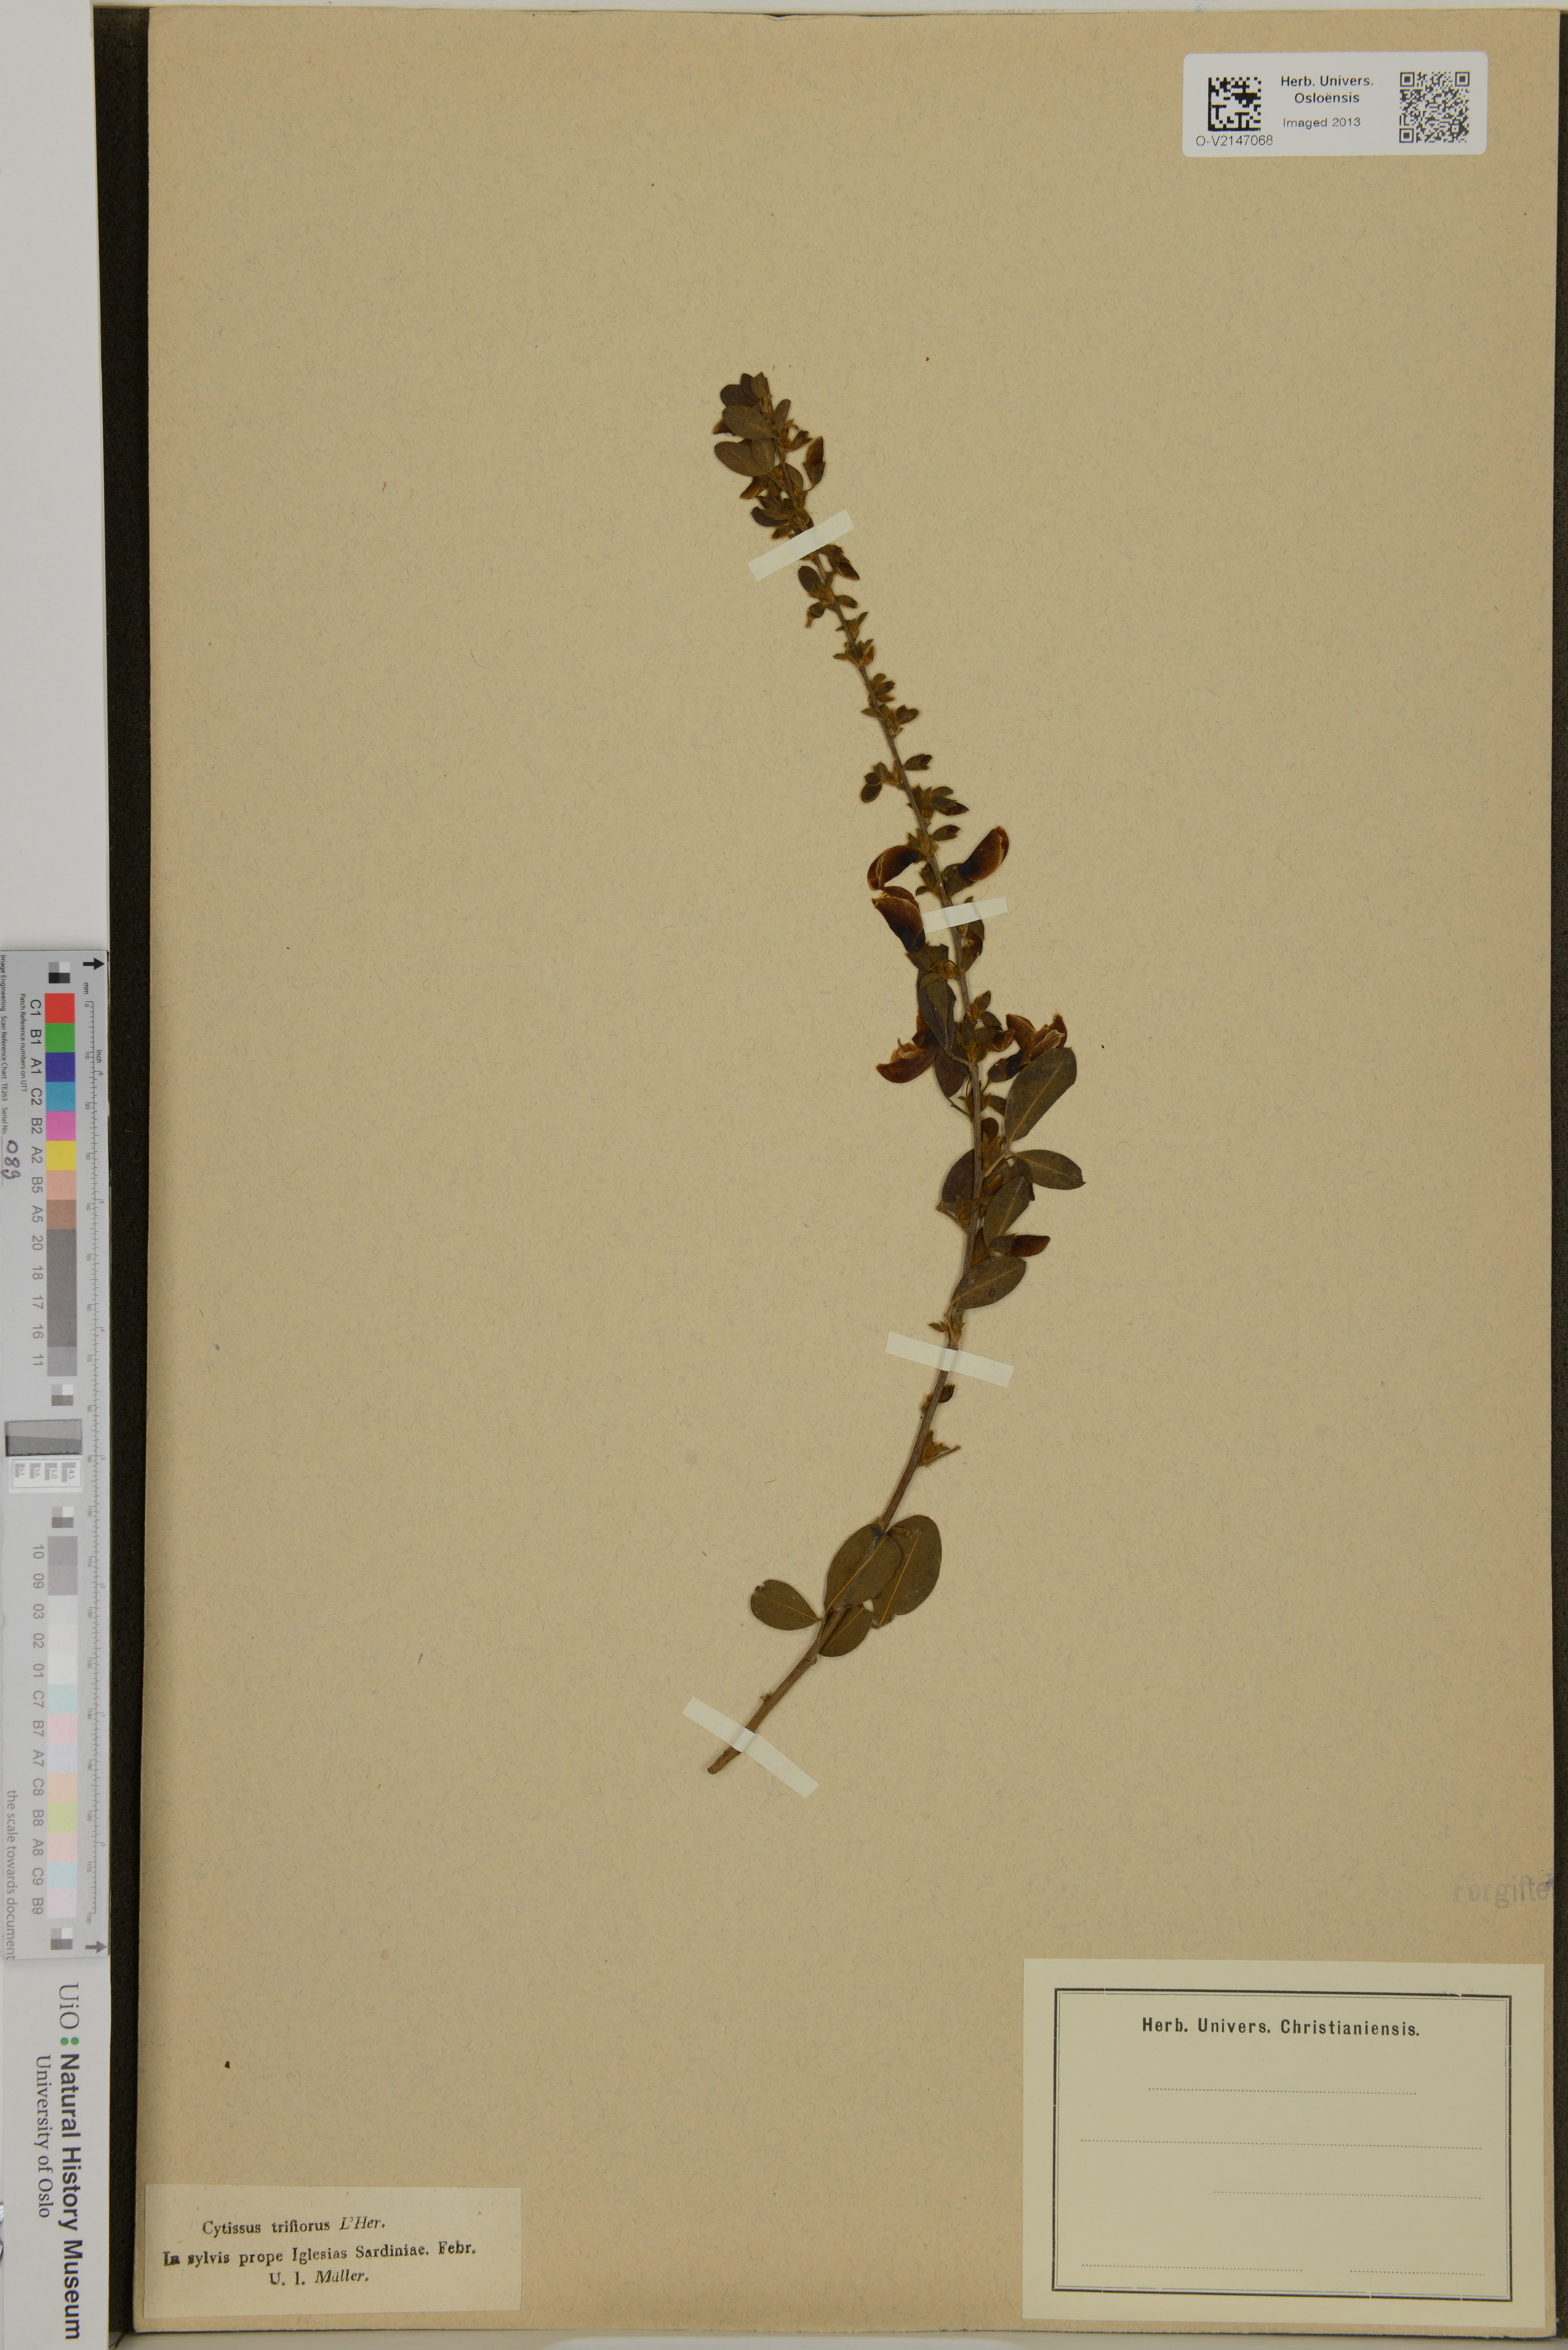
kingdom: Plantae
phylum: Tracheophyta
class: Magnoliopsida
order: Fabales
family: Fabaceae
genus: Cytisus
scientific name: Cytisus villosus
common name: Hairybroom
